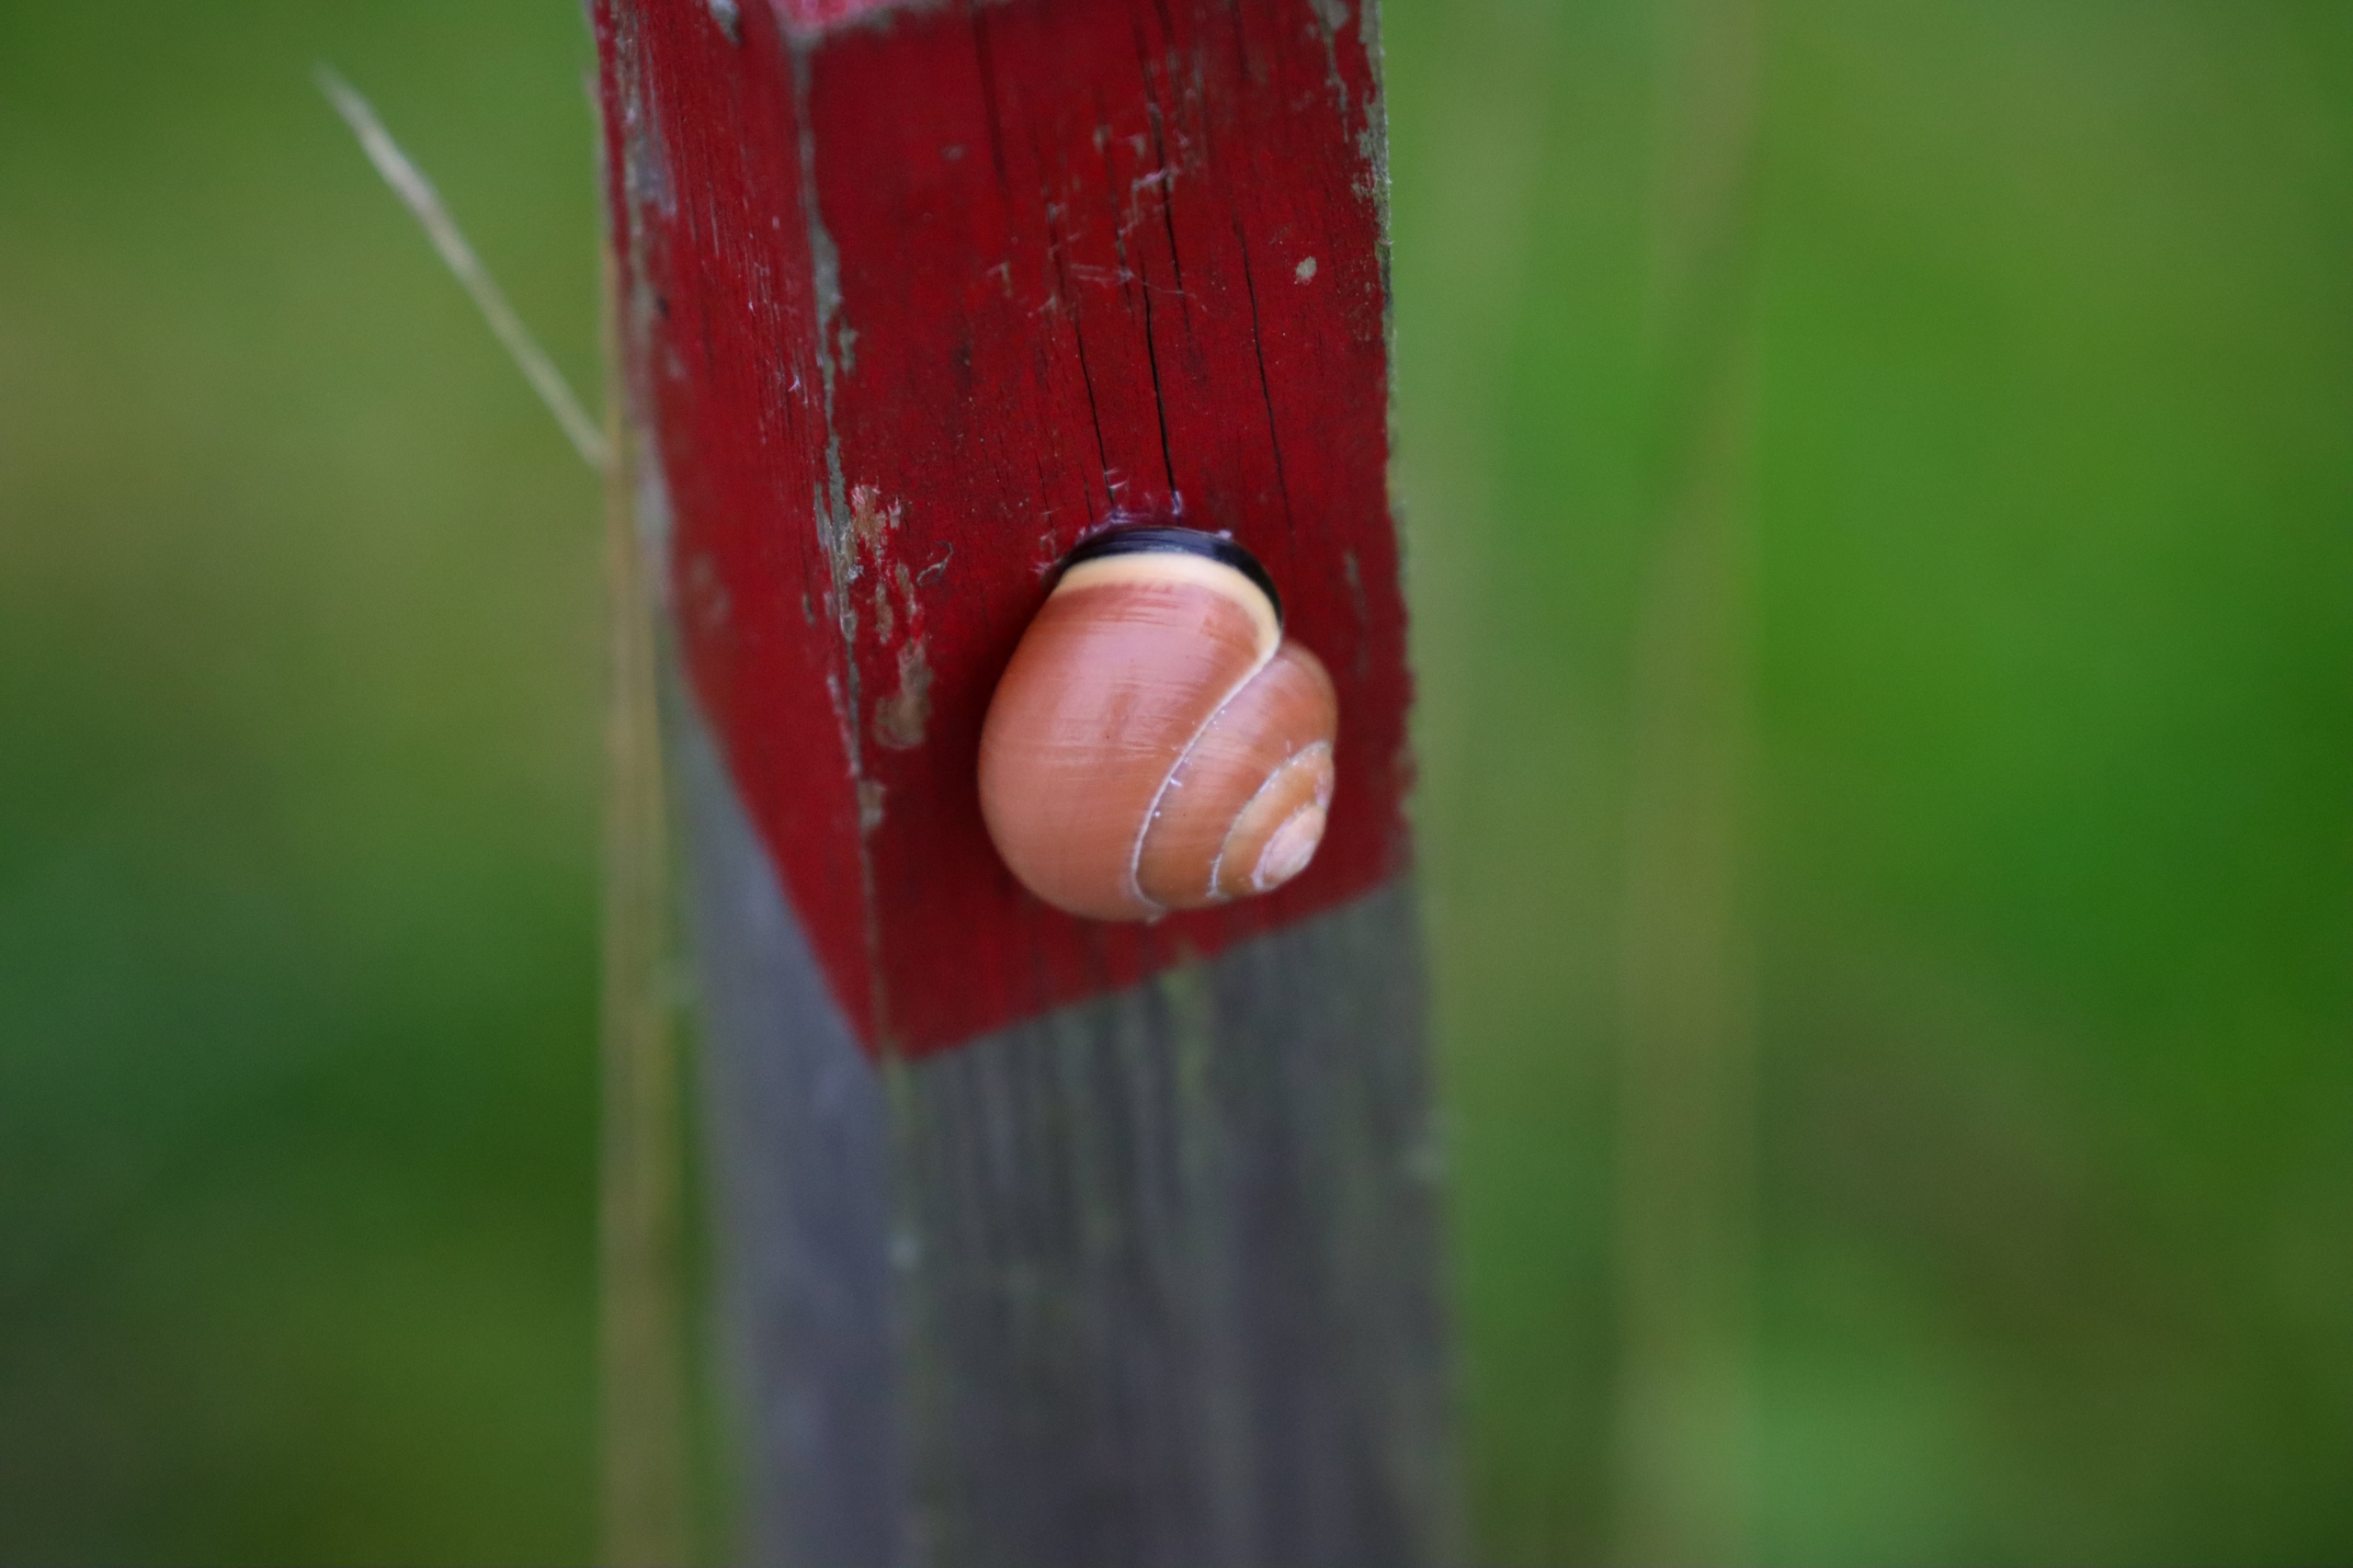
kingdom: Animalia
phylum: Mollusca
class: Gastropoda
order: Stylommatophora
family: Helicidae
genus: Cepaea
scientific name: Cepaea nemoralis
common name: Lundsnegl
